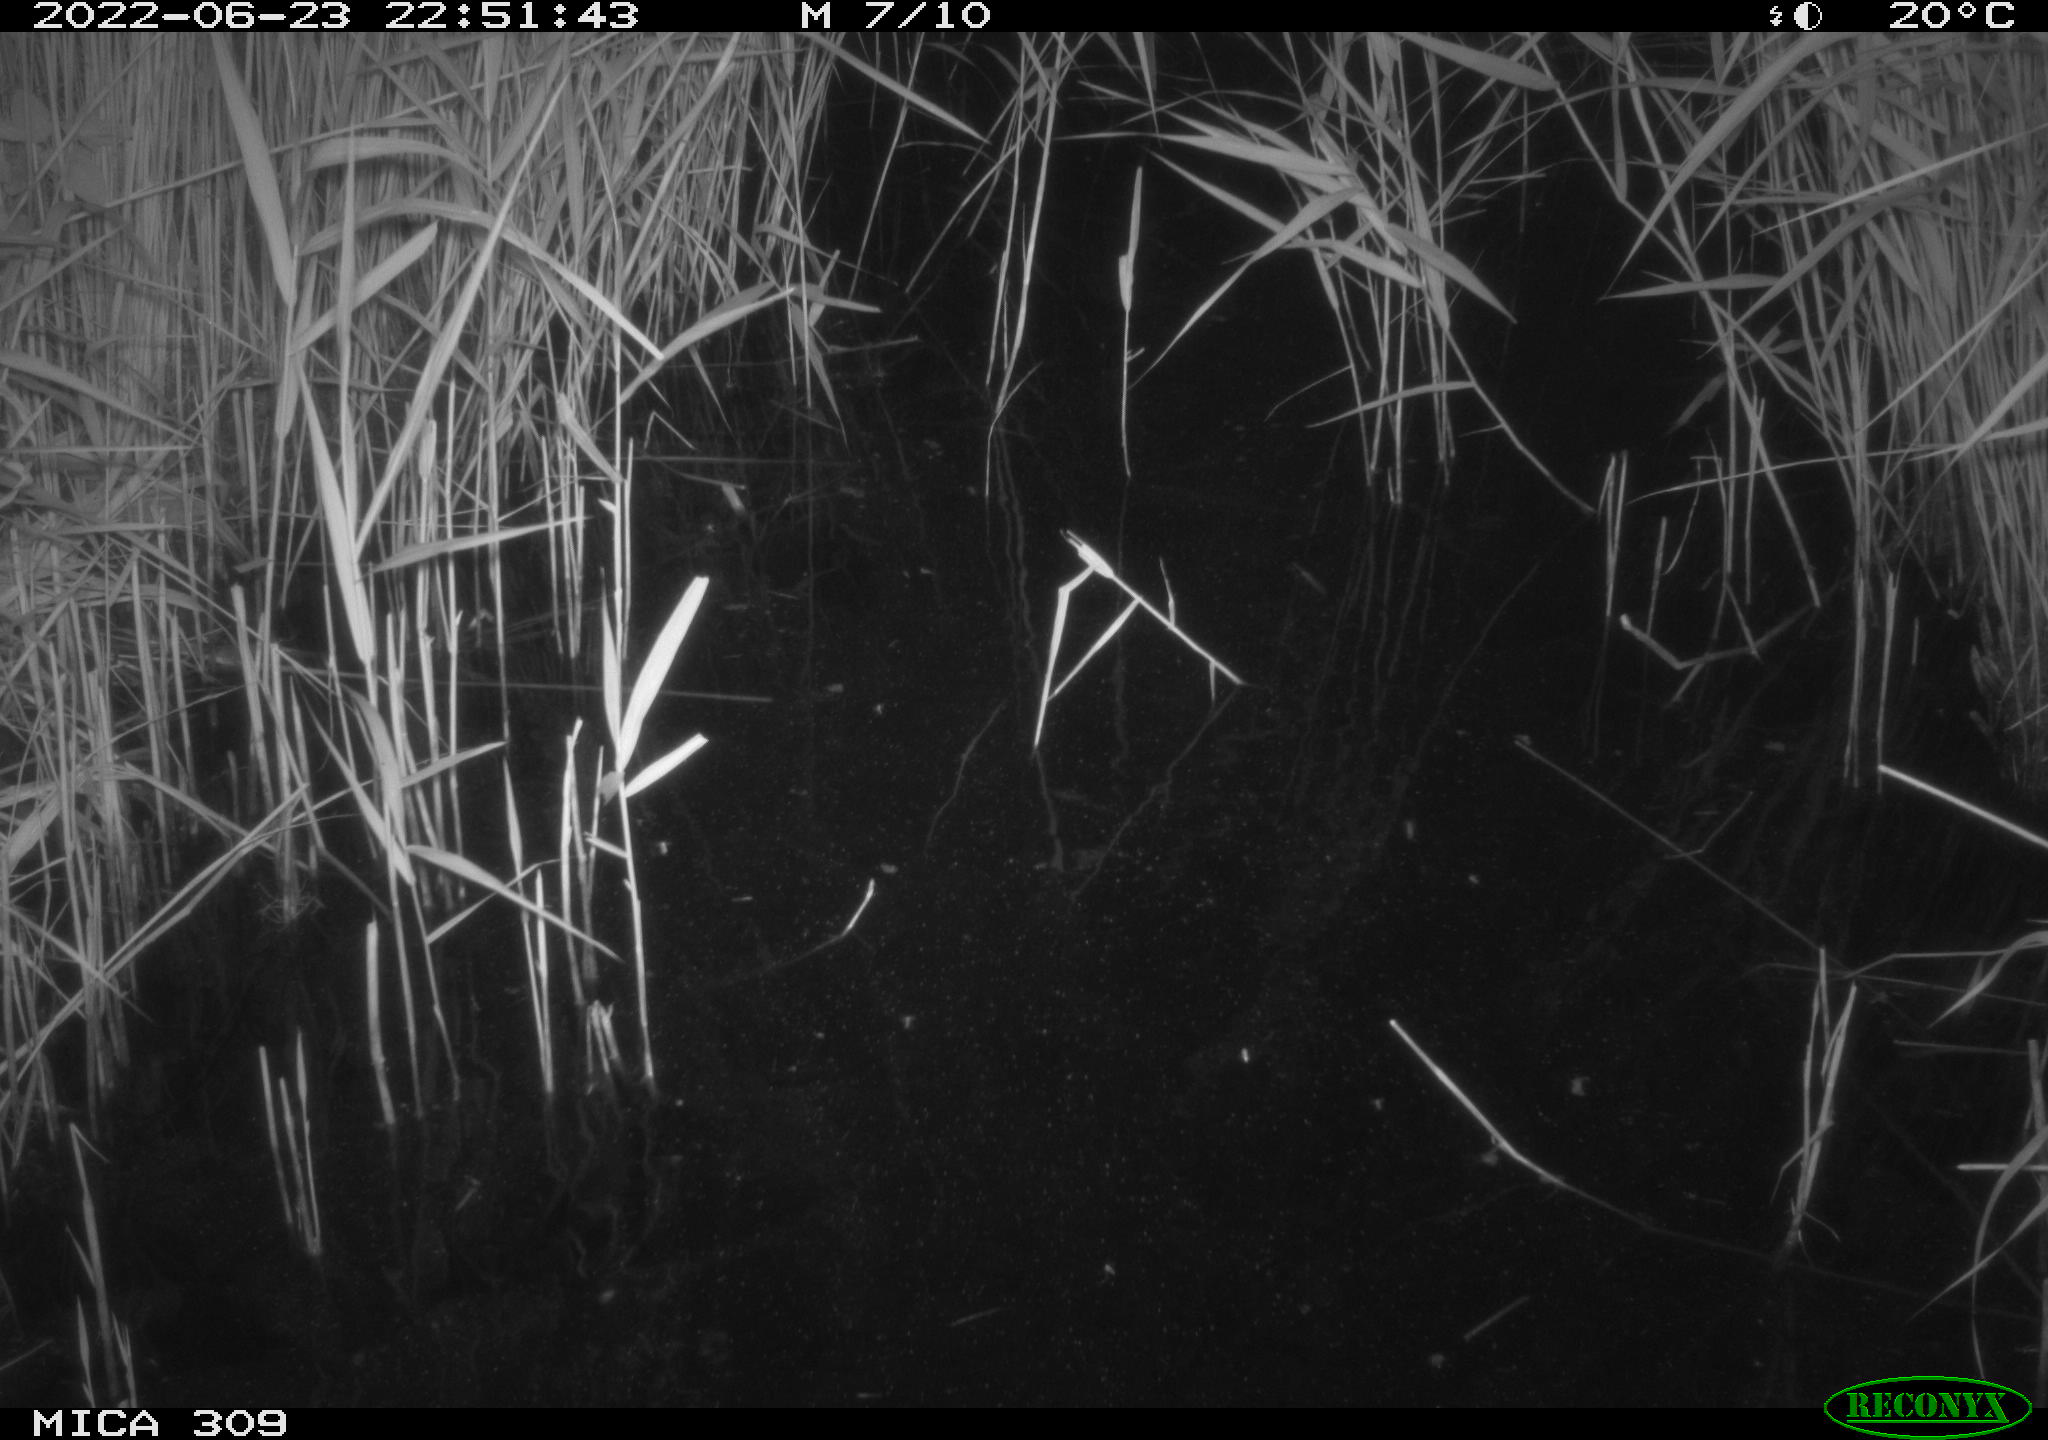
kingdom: Animalia
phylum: Chordata
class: Mammalia
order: Rodentia
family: Cricetidae
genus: Ondatra
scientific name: Ondatra zibethicus
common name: Muskrat
